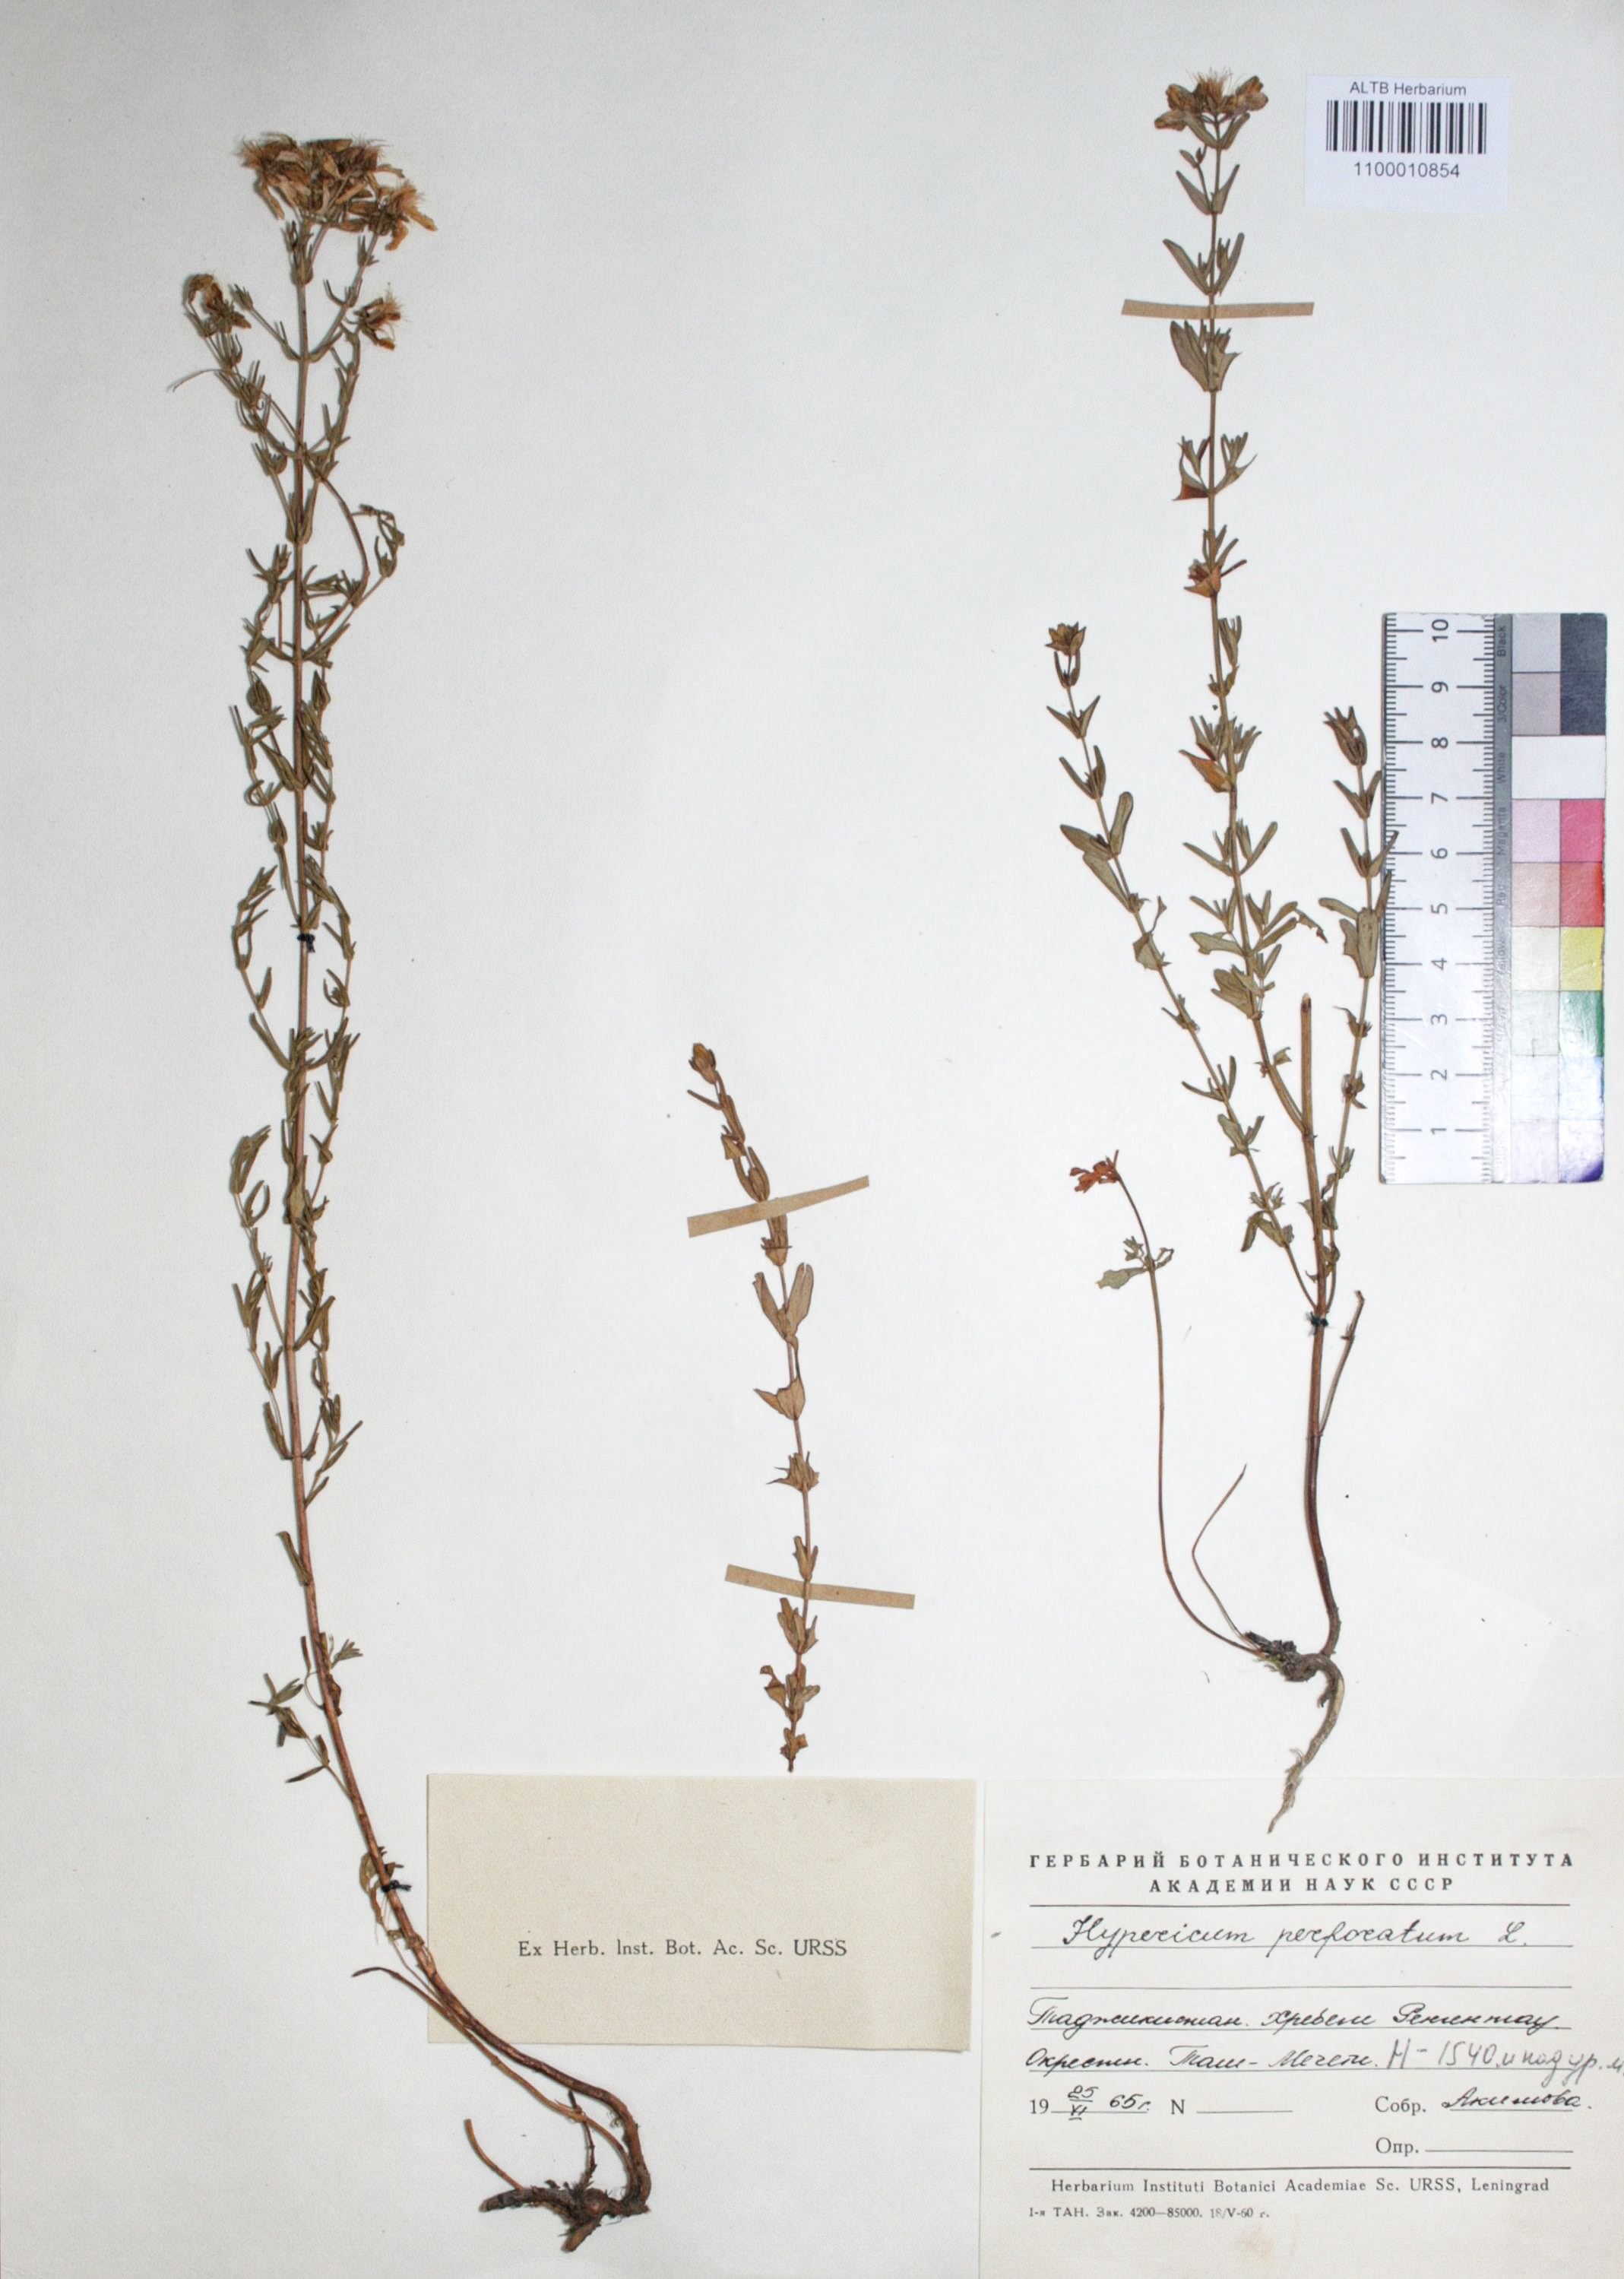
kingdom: Plantae
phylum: Tracheophyta
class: Magnoliopsida
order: Malpighiales
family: Hypericaceae
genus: Hypericum
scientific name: Hypericum perforatum
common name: Common st. johnswort
